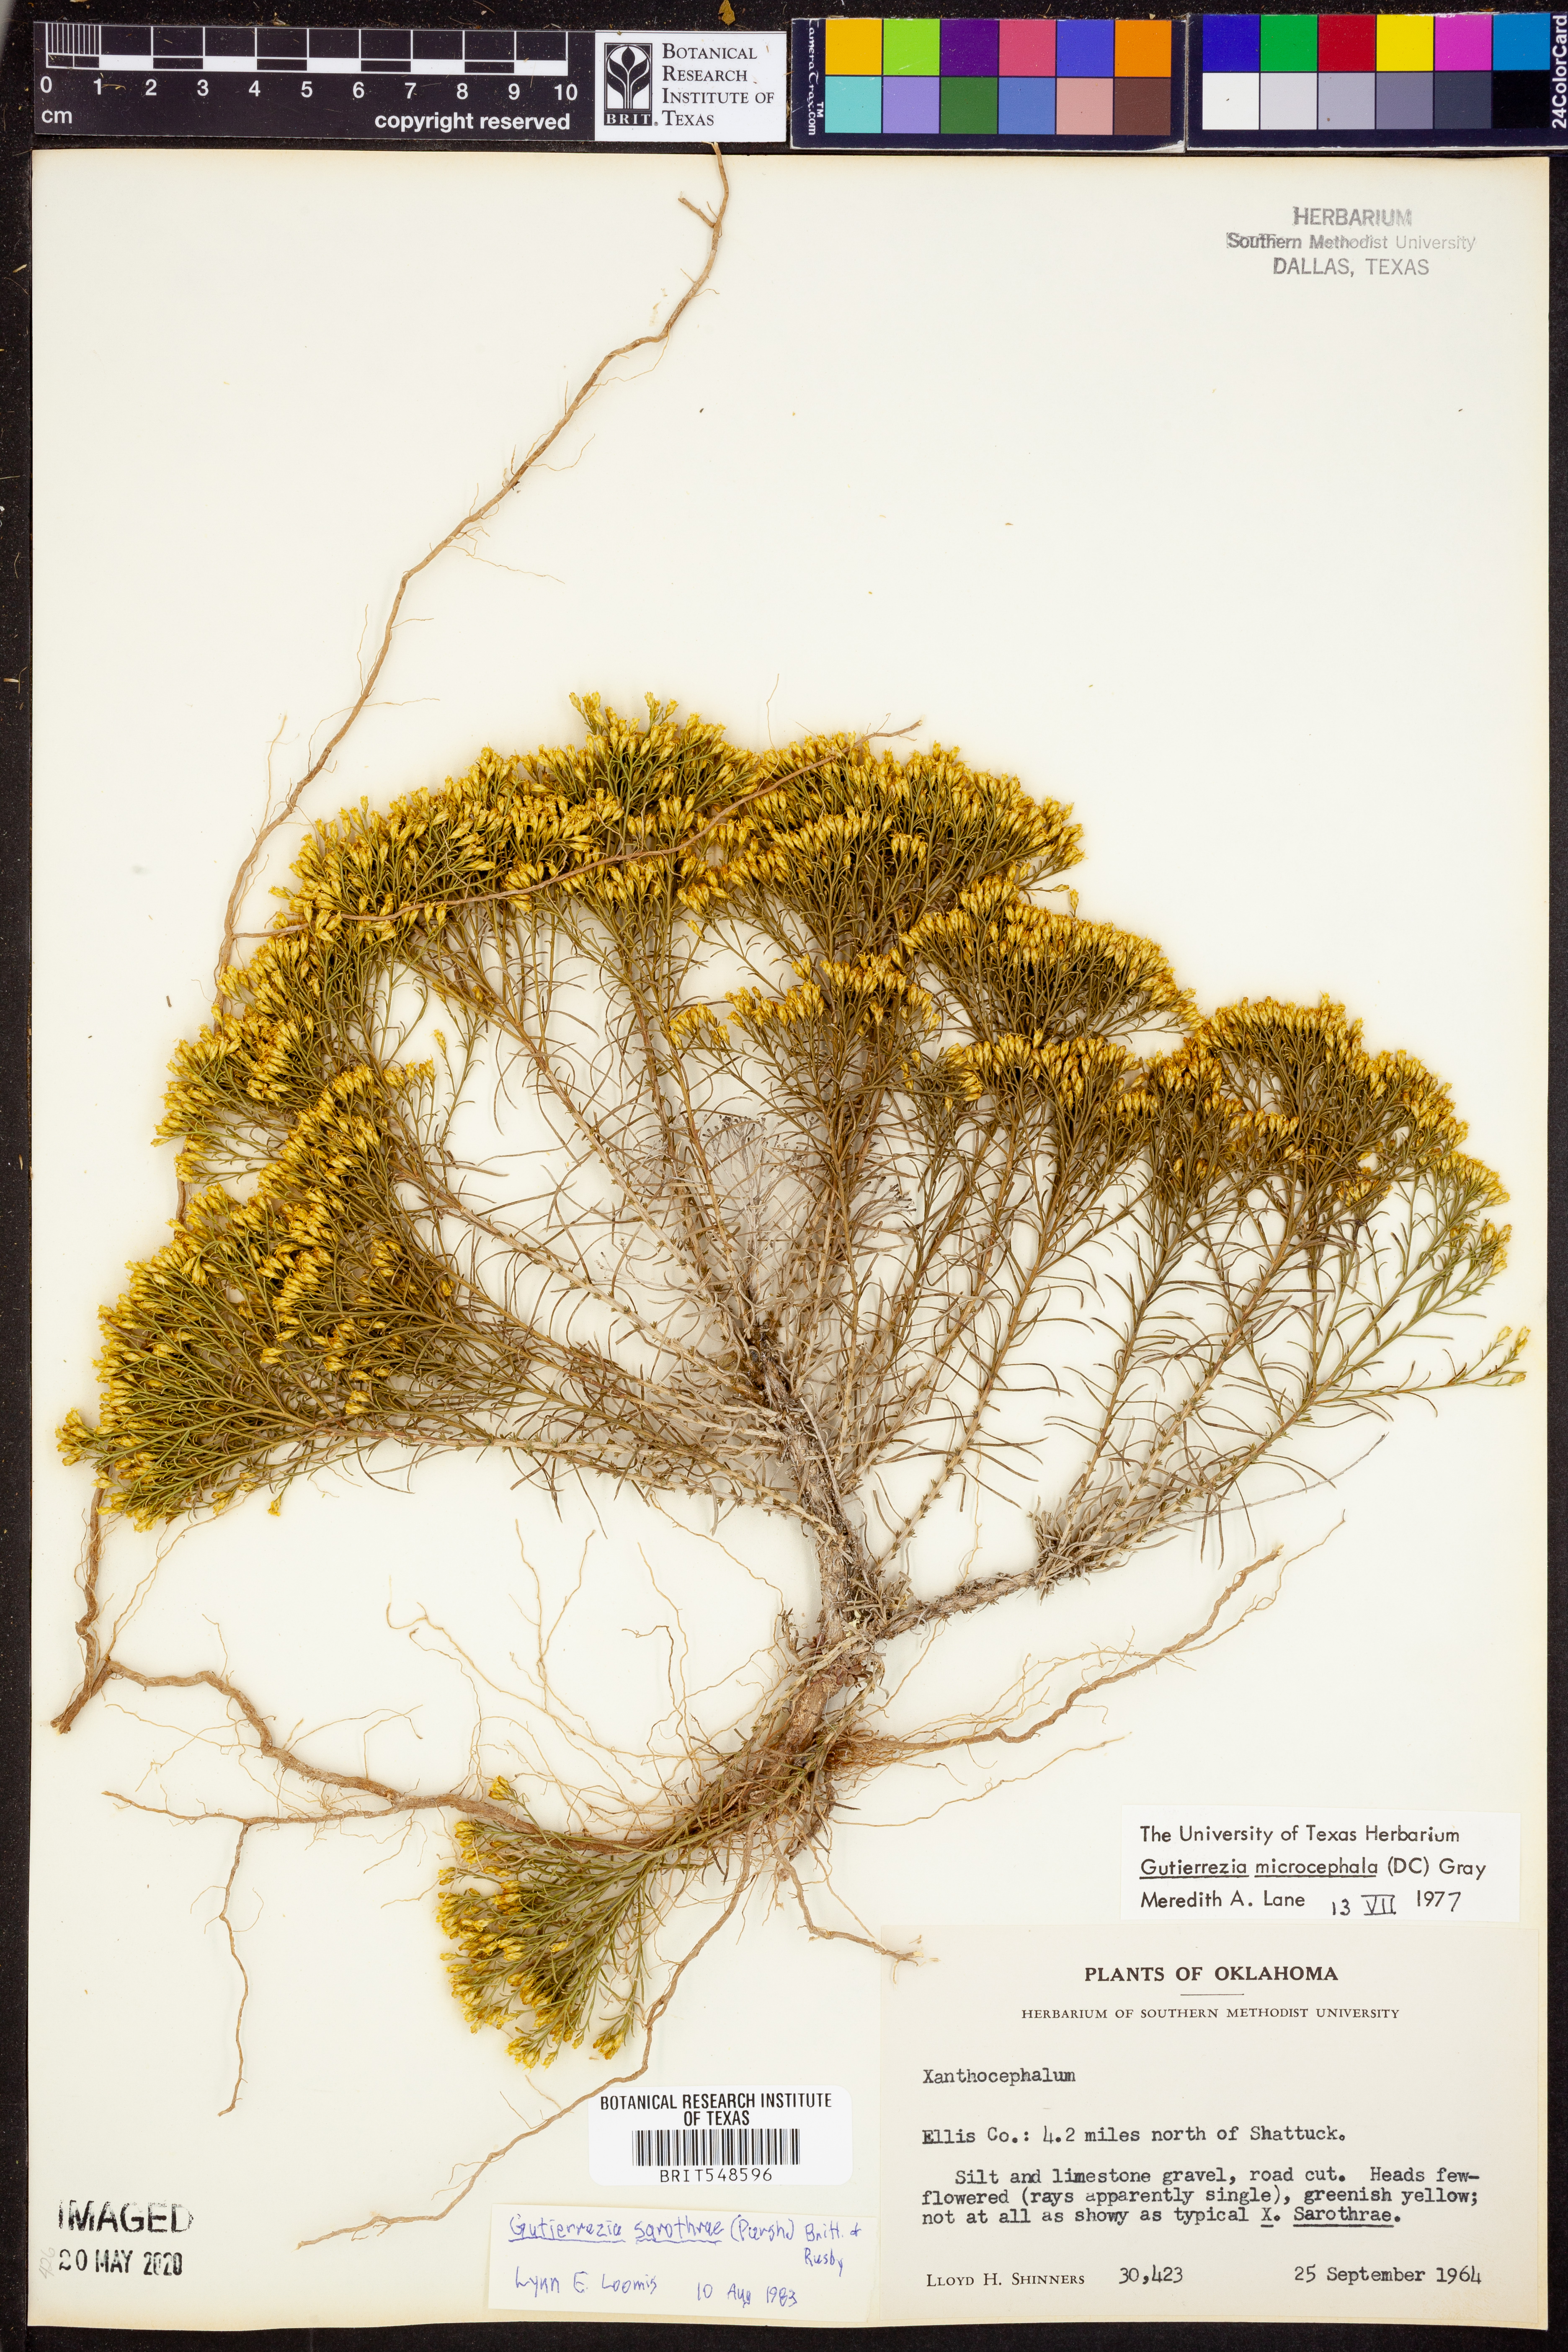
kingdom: Plantae
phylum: Tracheophyta
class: Magnoliopsida
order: Asterales
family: Asteraceae
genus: Gutierrezia
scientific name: Gutierrezia sarothrae
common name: Broom snakeweed
